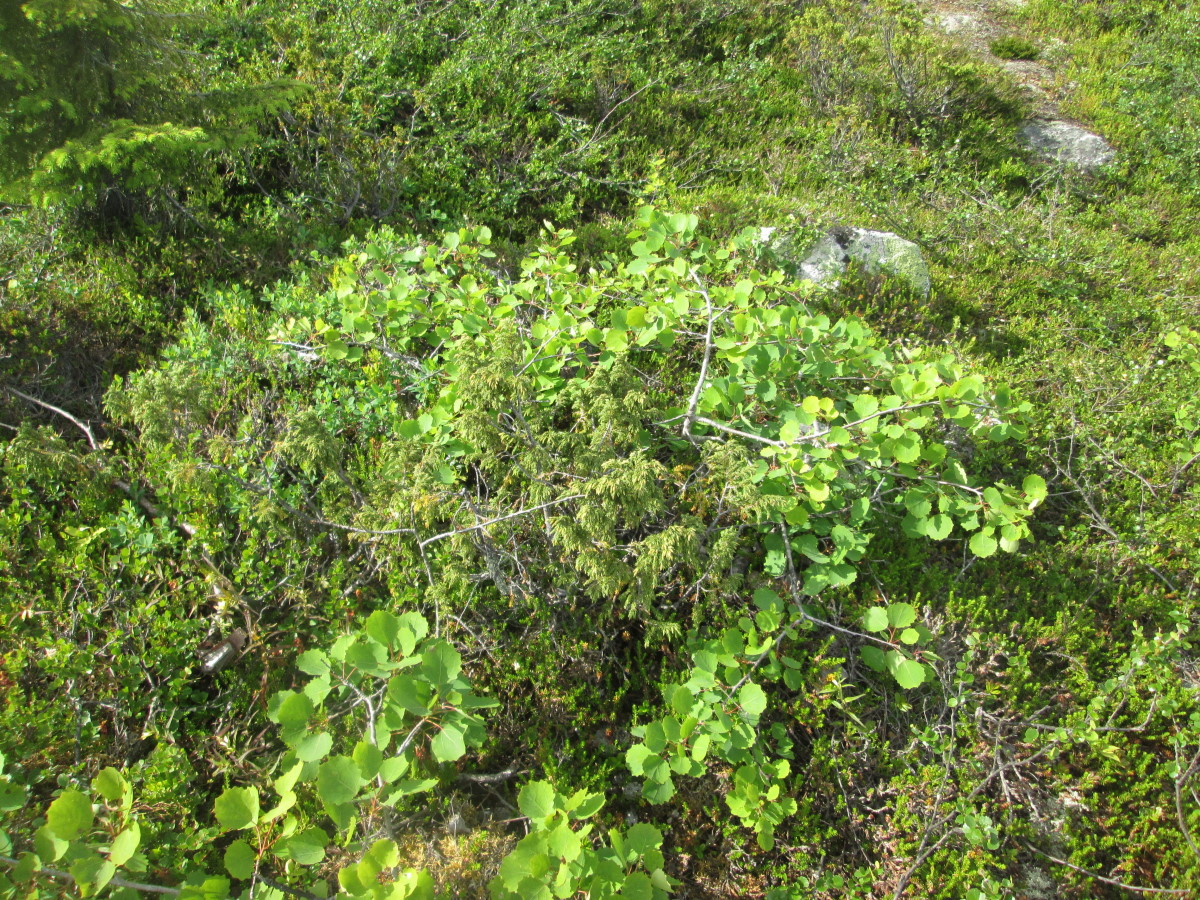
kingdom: Plantae
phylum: Tracheophyta
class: Magnoliopsida
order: Malpighiales
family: Salicaceae
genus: Populus
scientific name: Populus tremula
